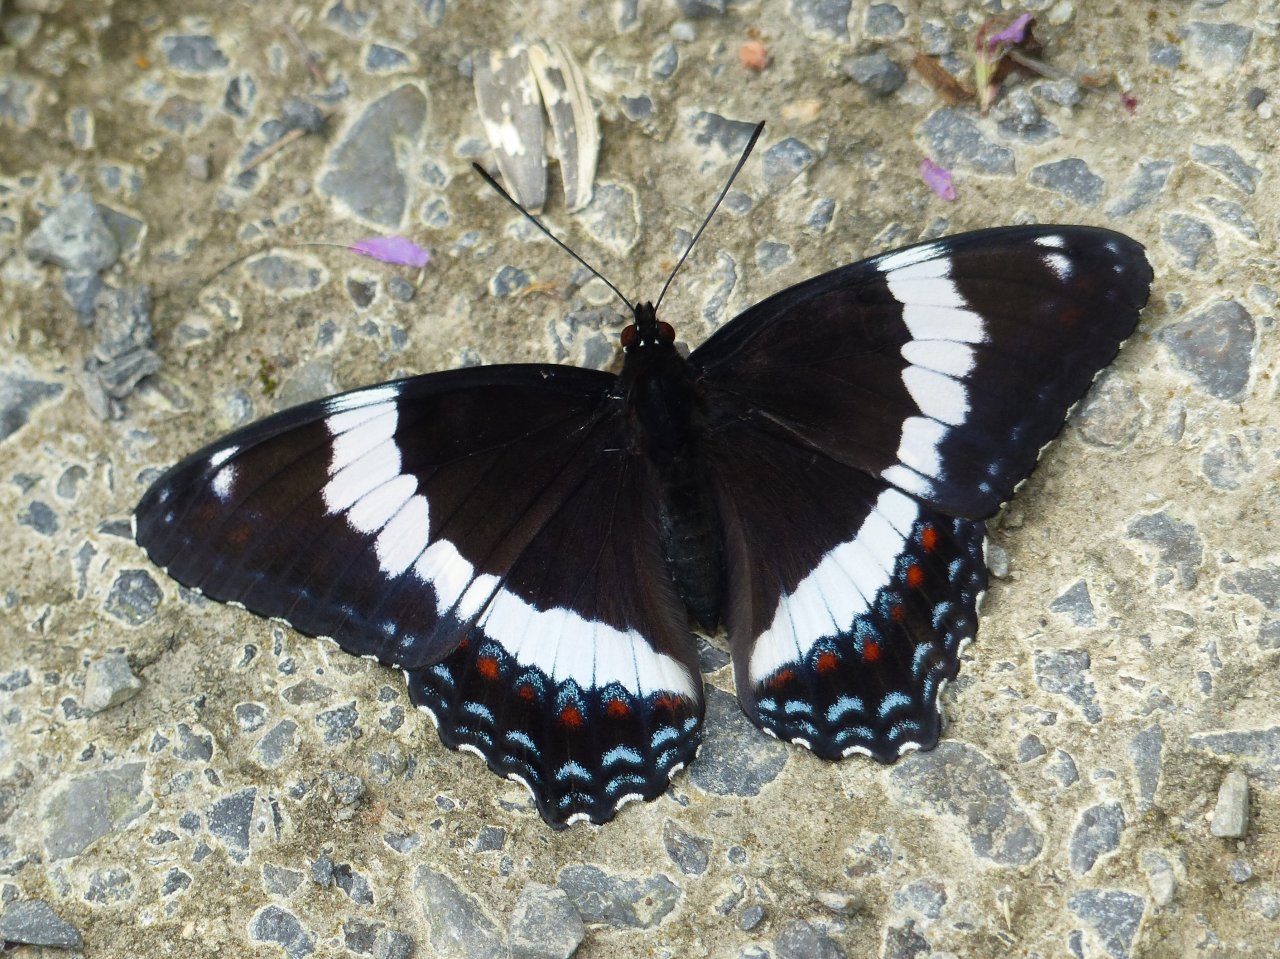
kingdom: Animalia
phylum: Arthropoda
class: Insecta
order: Lepidoptera
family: Nymphalidae
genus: Limenitis
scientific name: Limenitis arthemis
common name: Red-spotted Admiral
